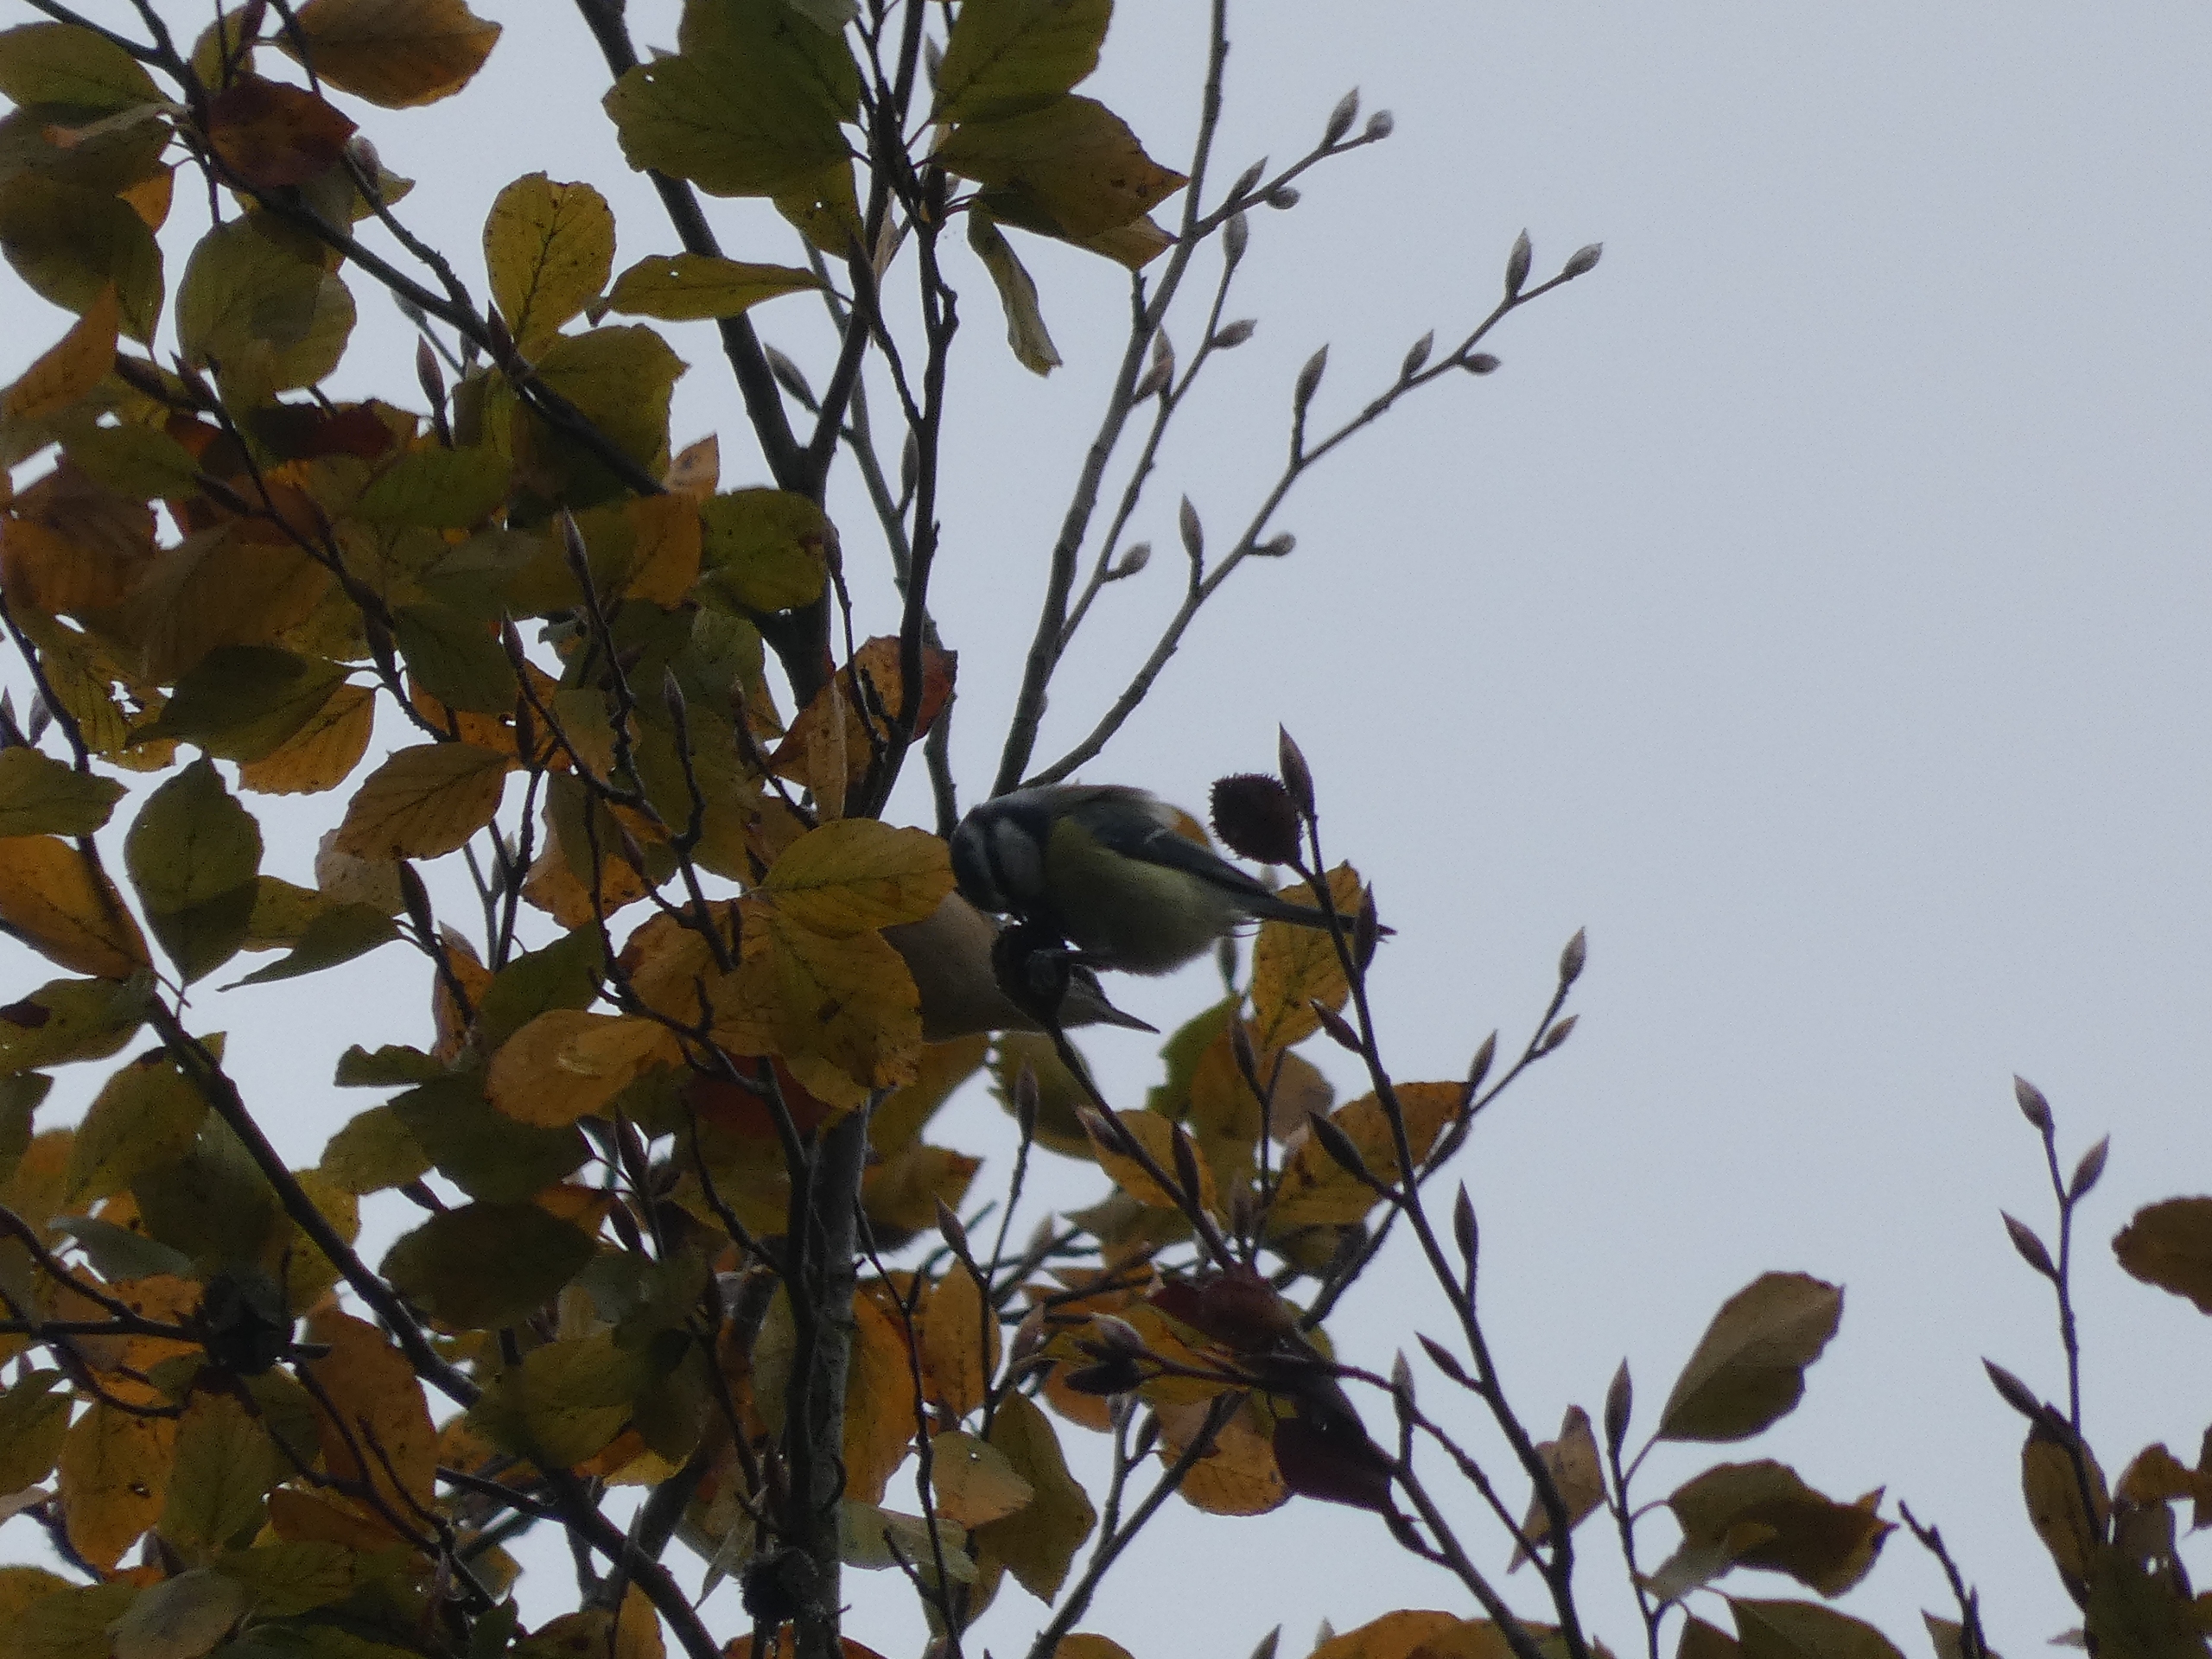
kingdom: Animalia
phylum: Chordata
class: Aves
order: Passeriformes
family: Paridae
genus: Cyanistes
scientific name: Cyanistes caeruleus
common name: Blåmejse
